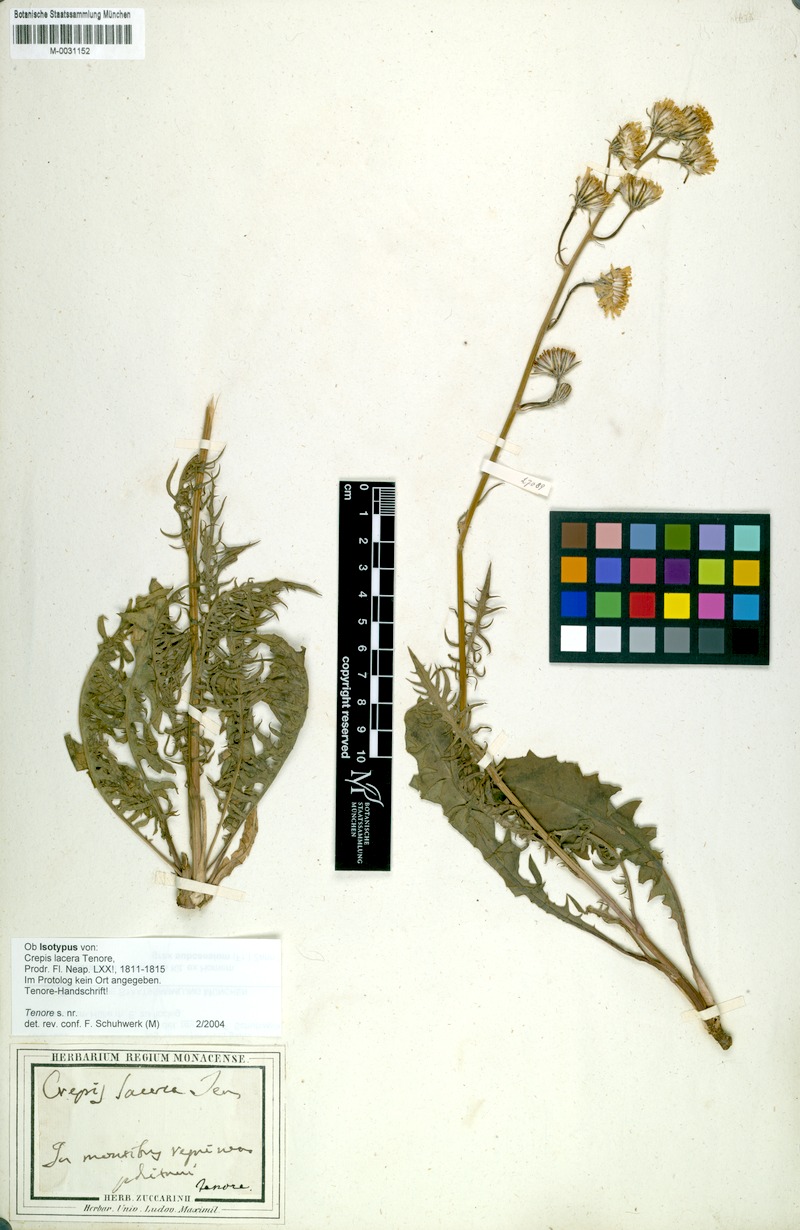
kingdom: Plantae
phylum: Tracheophyta
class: Magnoliopsida
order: Asterales
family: Asteraceae
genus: Crepis
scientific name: Crepis lacera
